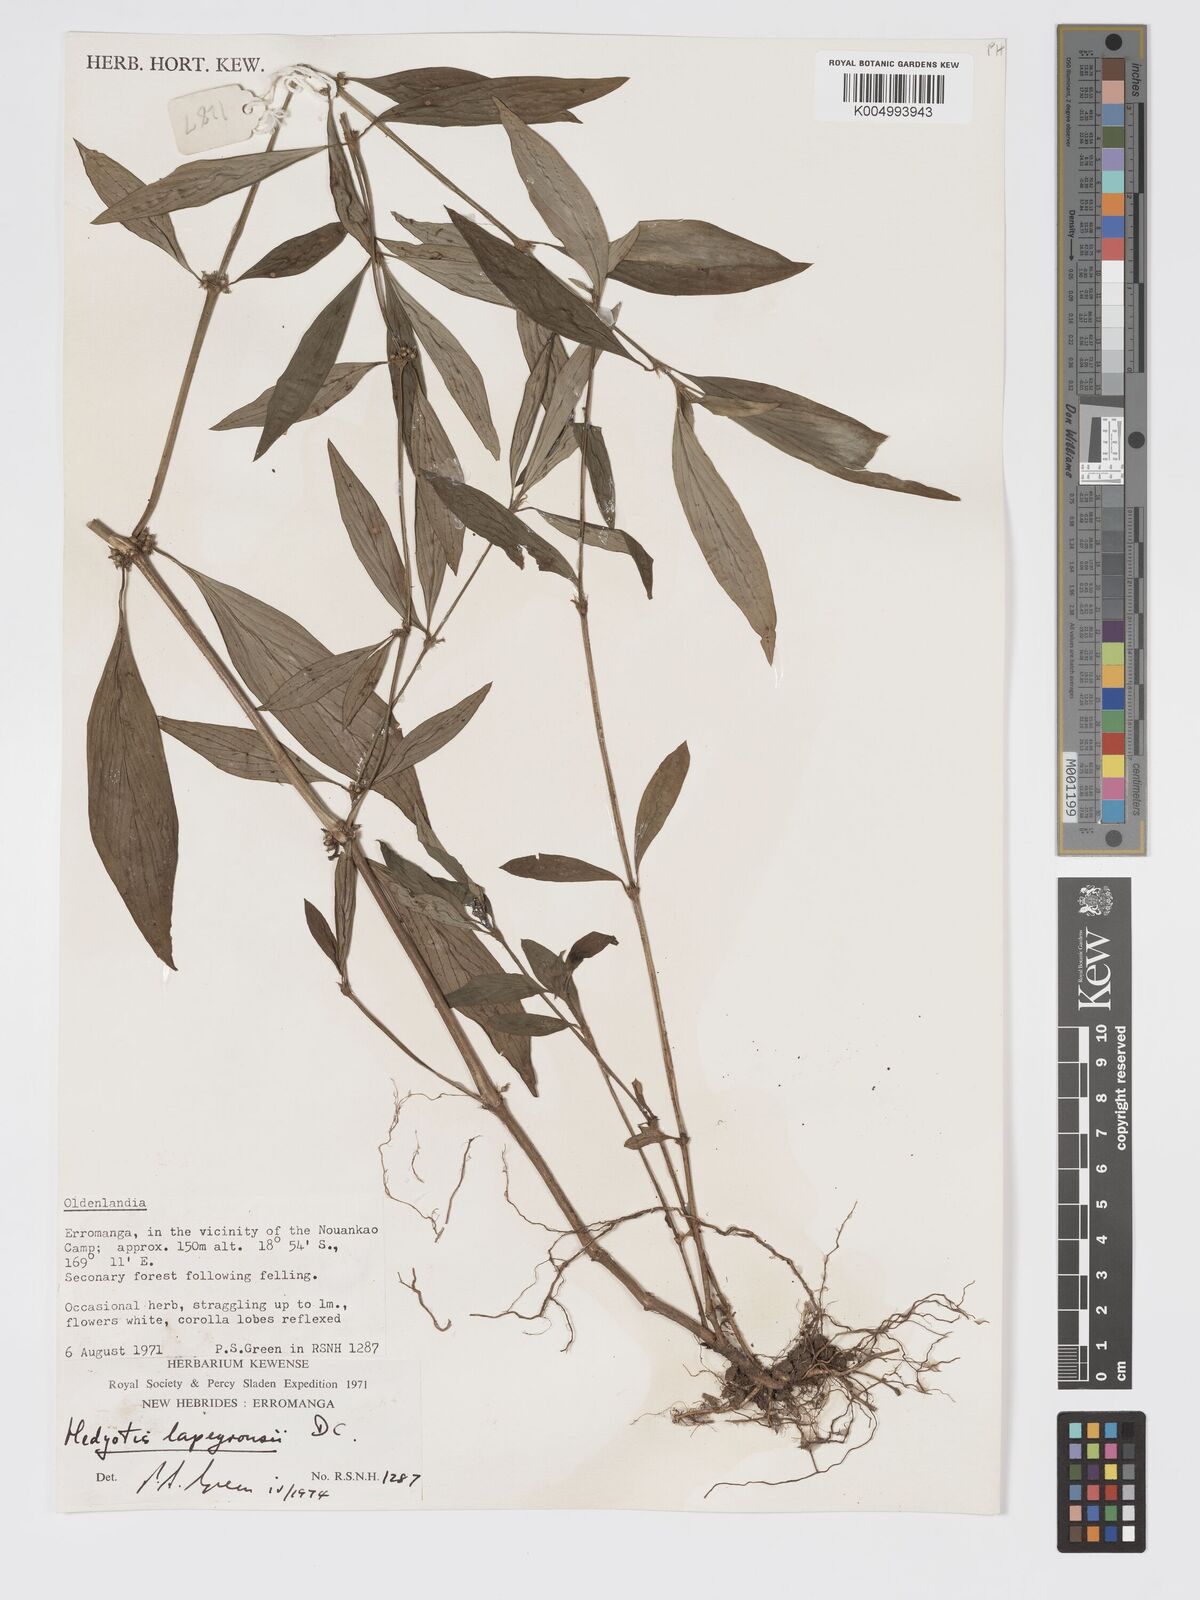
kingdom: Plantae
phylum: Tracheophyta
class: Magnoliopsida
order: Gentianales
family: Rubiaceae
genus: Exallage
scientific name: Exallage lapeyrousei
